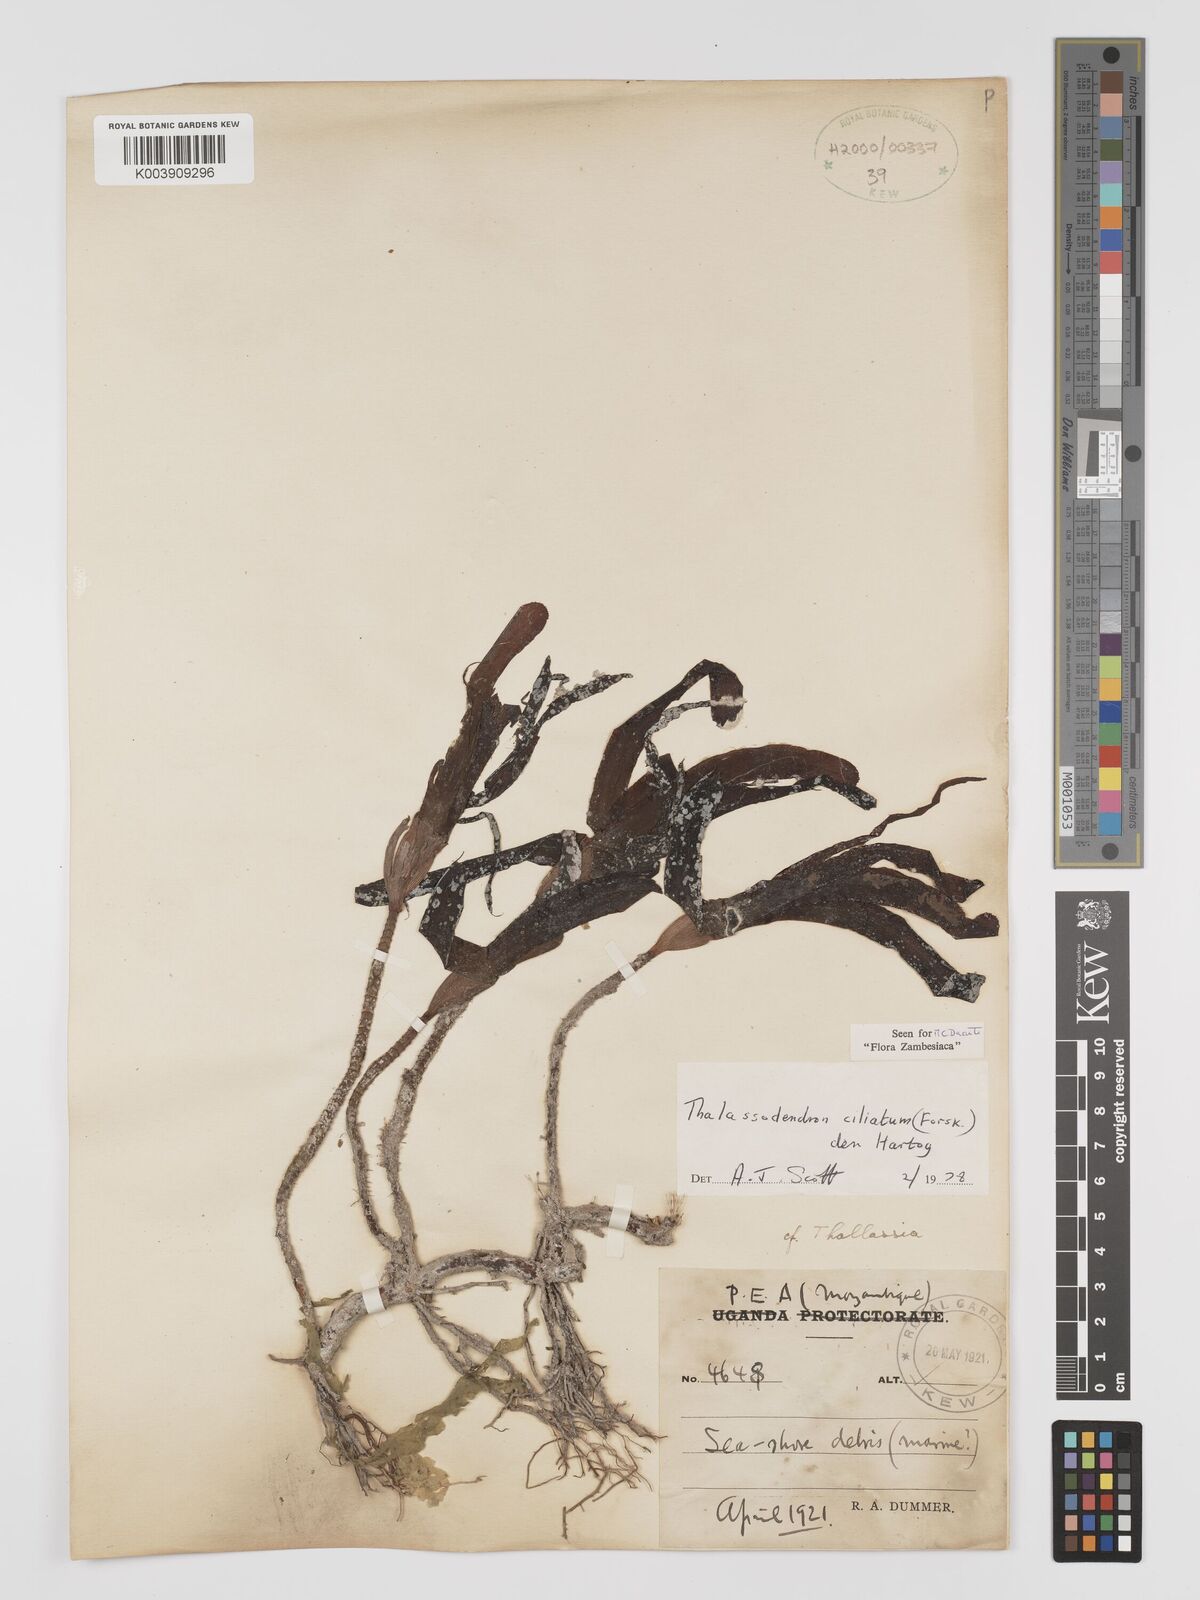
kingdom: Plantae
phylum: Tracheophyta
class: Liliopsida
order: Alismatales
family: Cymodoceaceae
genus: Thalassodendron
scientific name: Thalassodendron ciliatum
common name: Species code: tc
